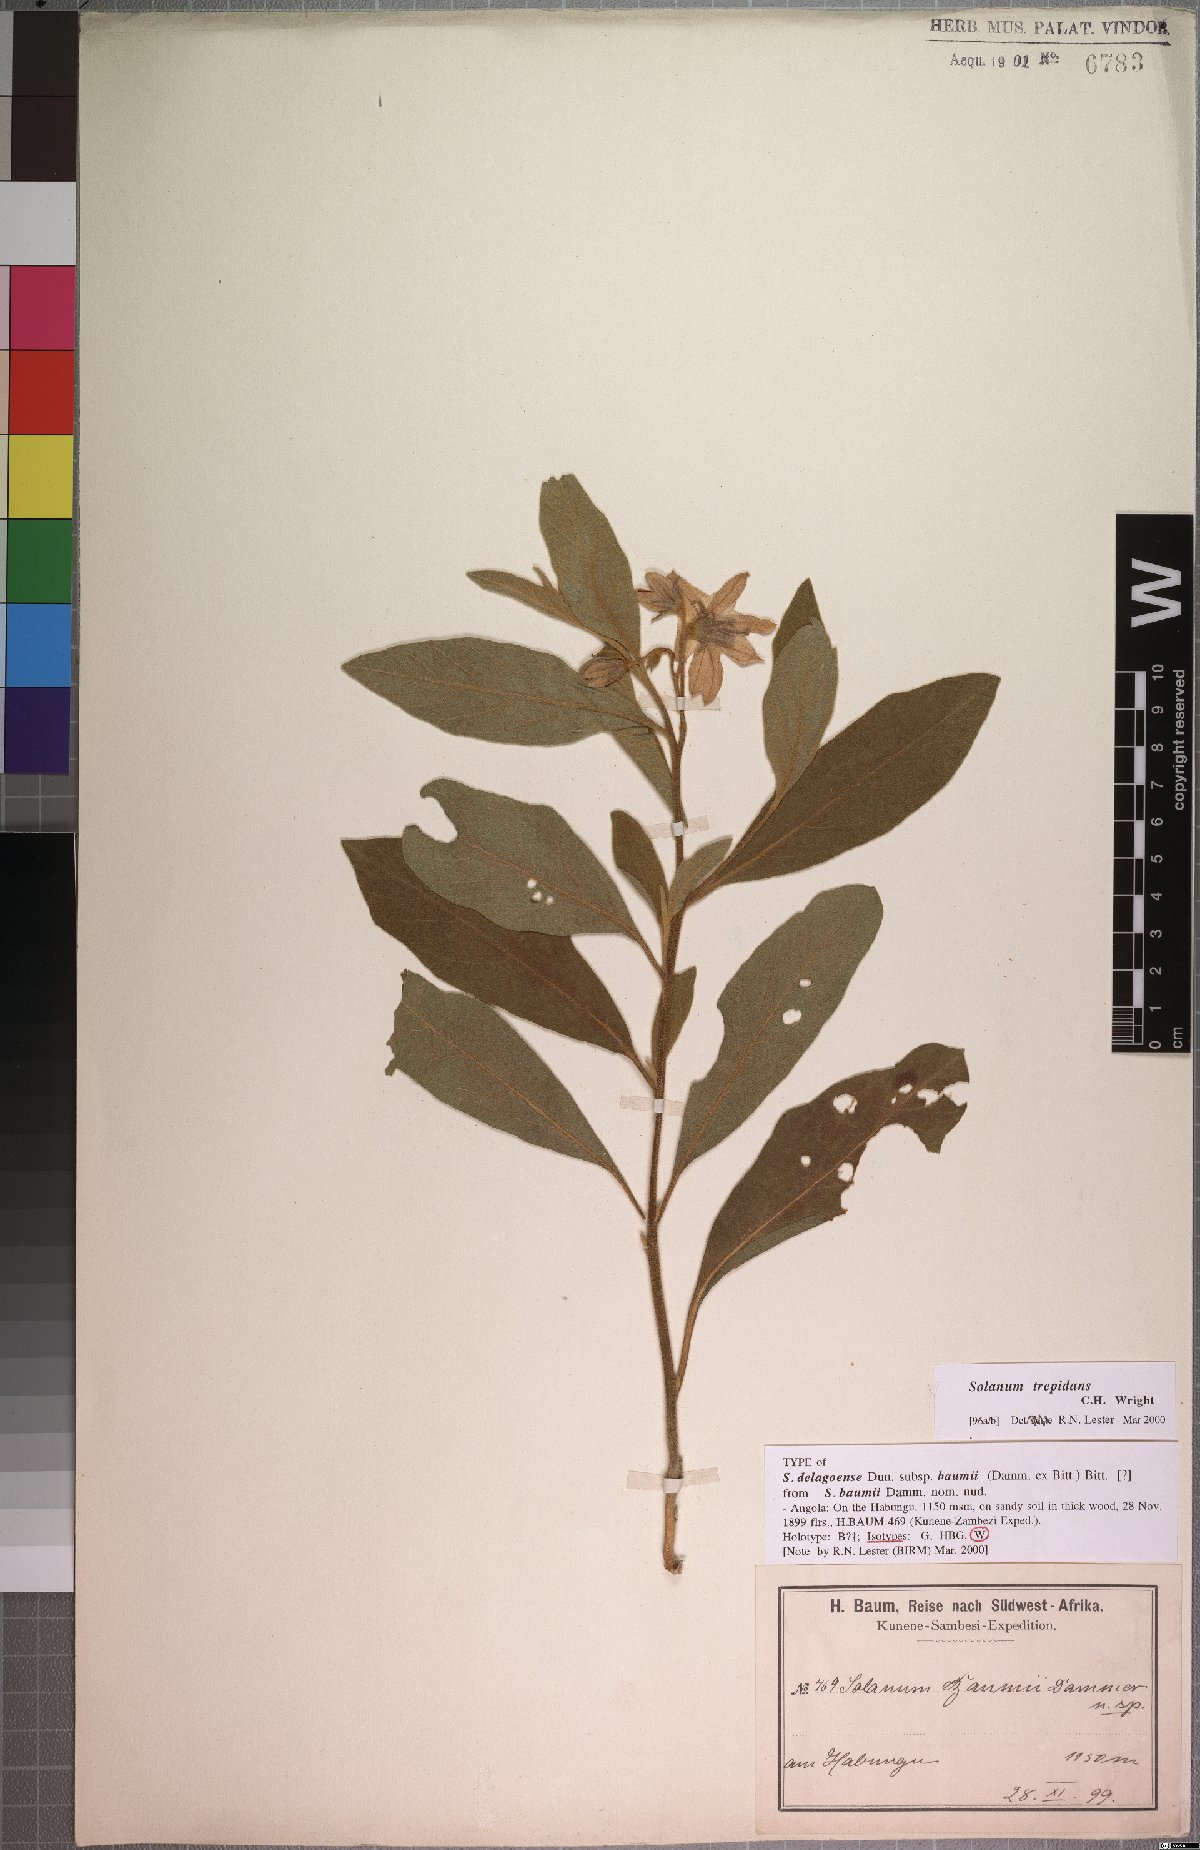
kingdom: Plantae
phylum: Tracheophyta
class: Magnoliopsida
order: Solanales
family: Solanaceae
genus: Solanum
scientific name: Solanum campylacanthum
